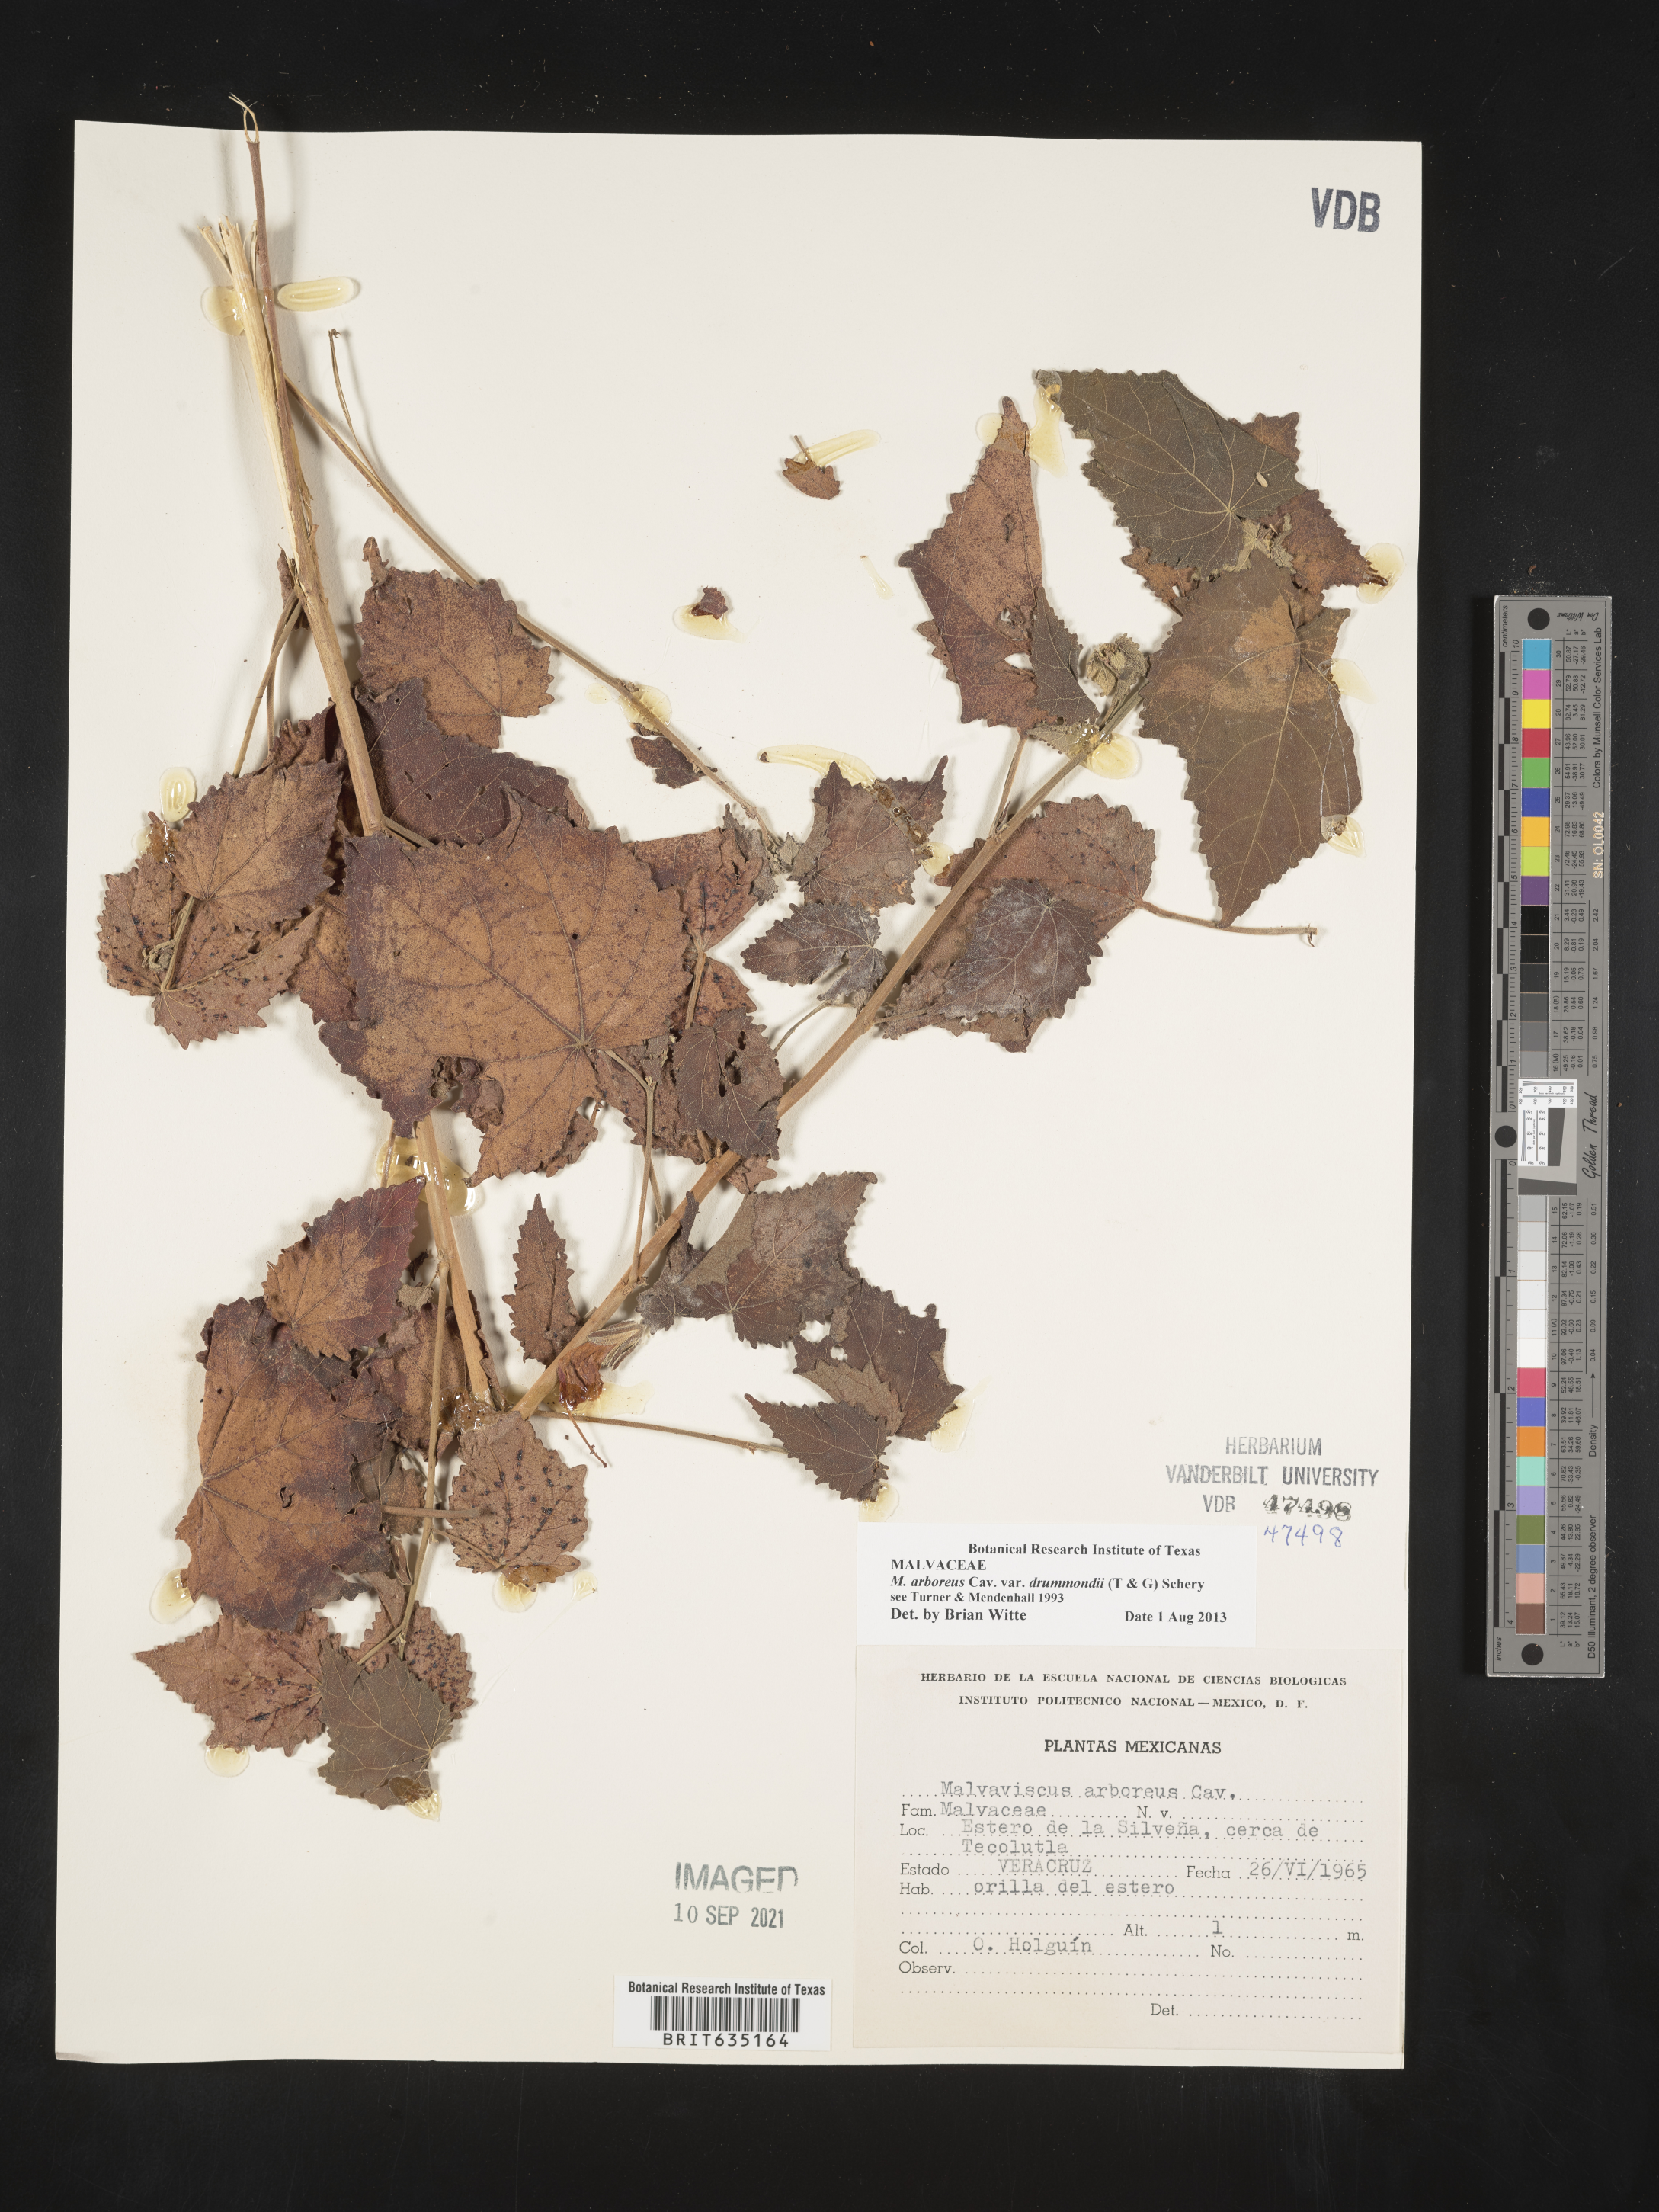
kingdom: Plantae
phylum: Tracheophyta
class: Magnoliopsida
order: Malvales
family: Malvaceae
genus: Malvaviscus
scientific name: Malvaviscus
